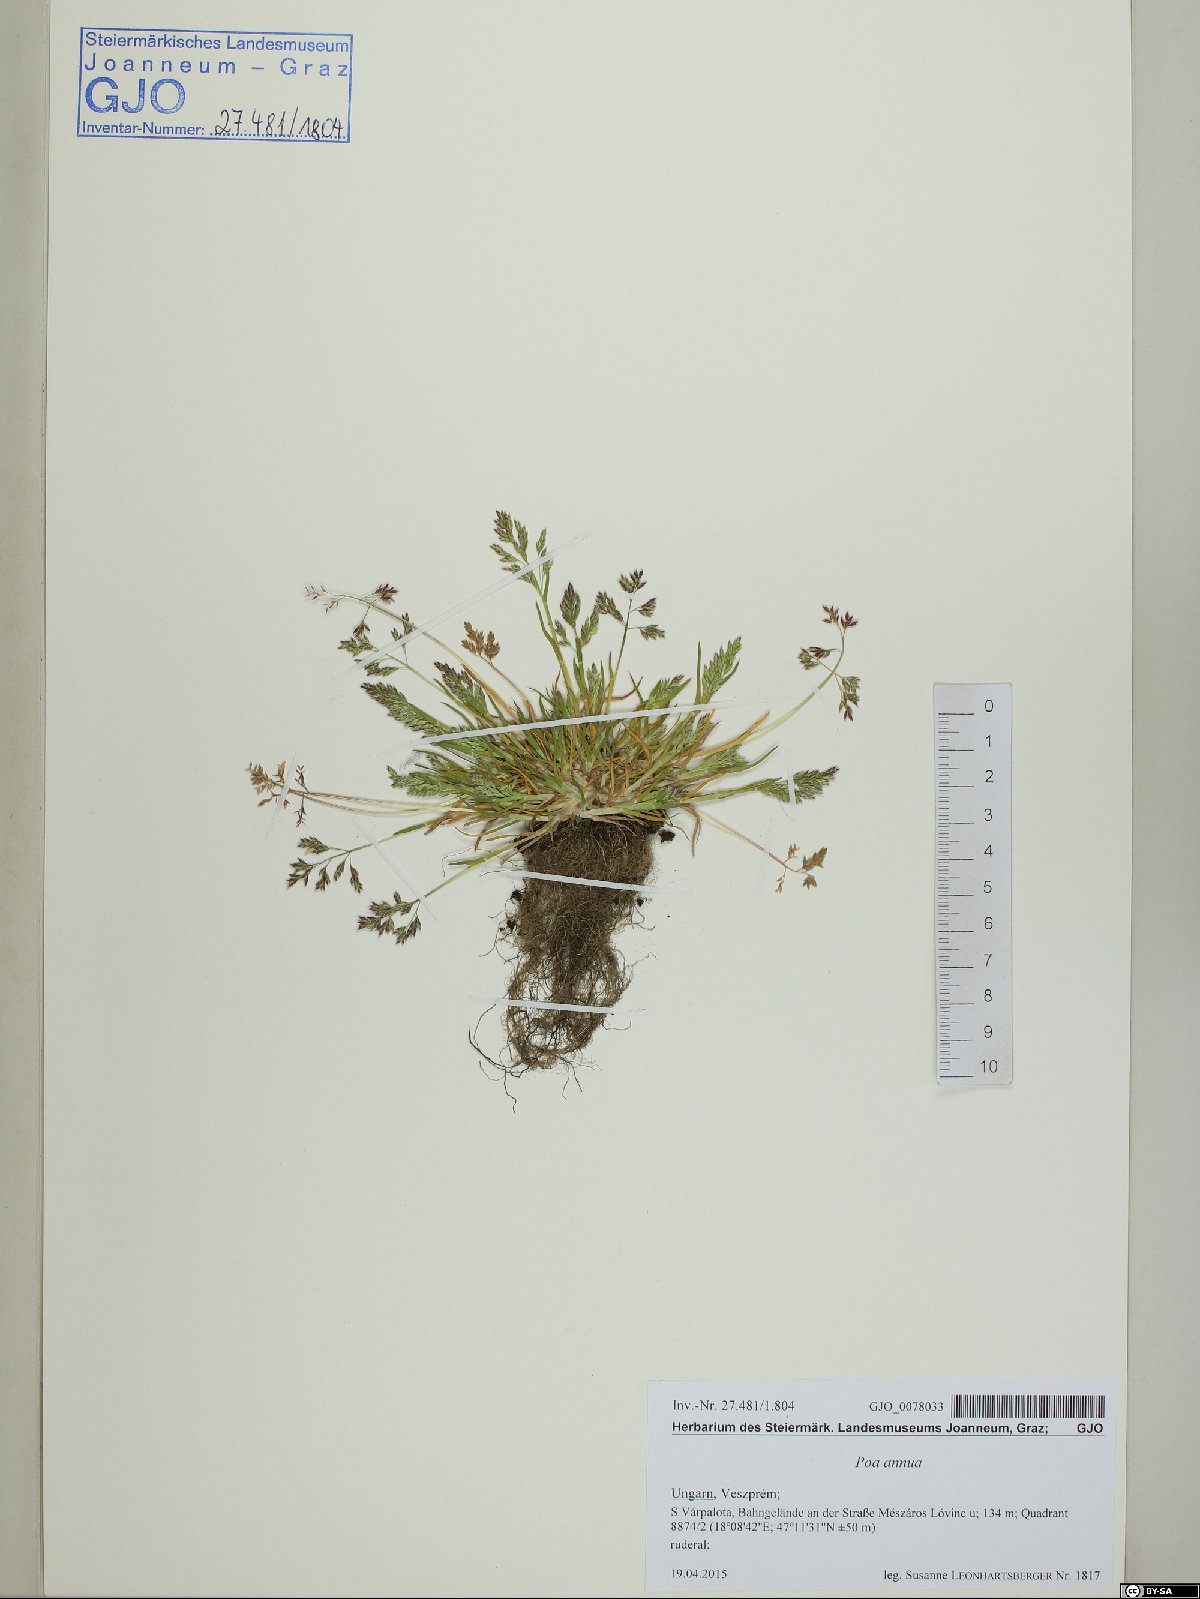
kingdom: Plantae
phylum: Tracheophyta
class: Liliopsida
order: Poales
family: Poaceae
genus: Poa
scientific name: Poa annua
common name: Annual bluegrass
